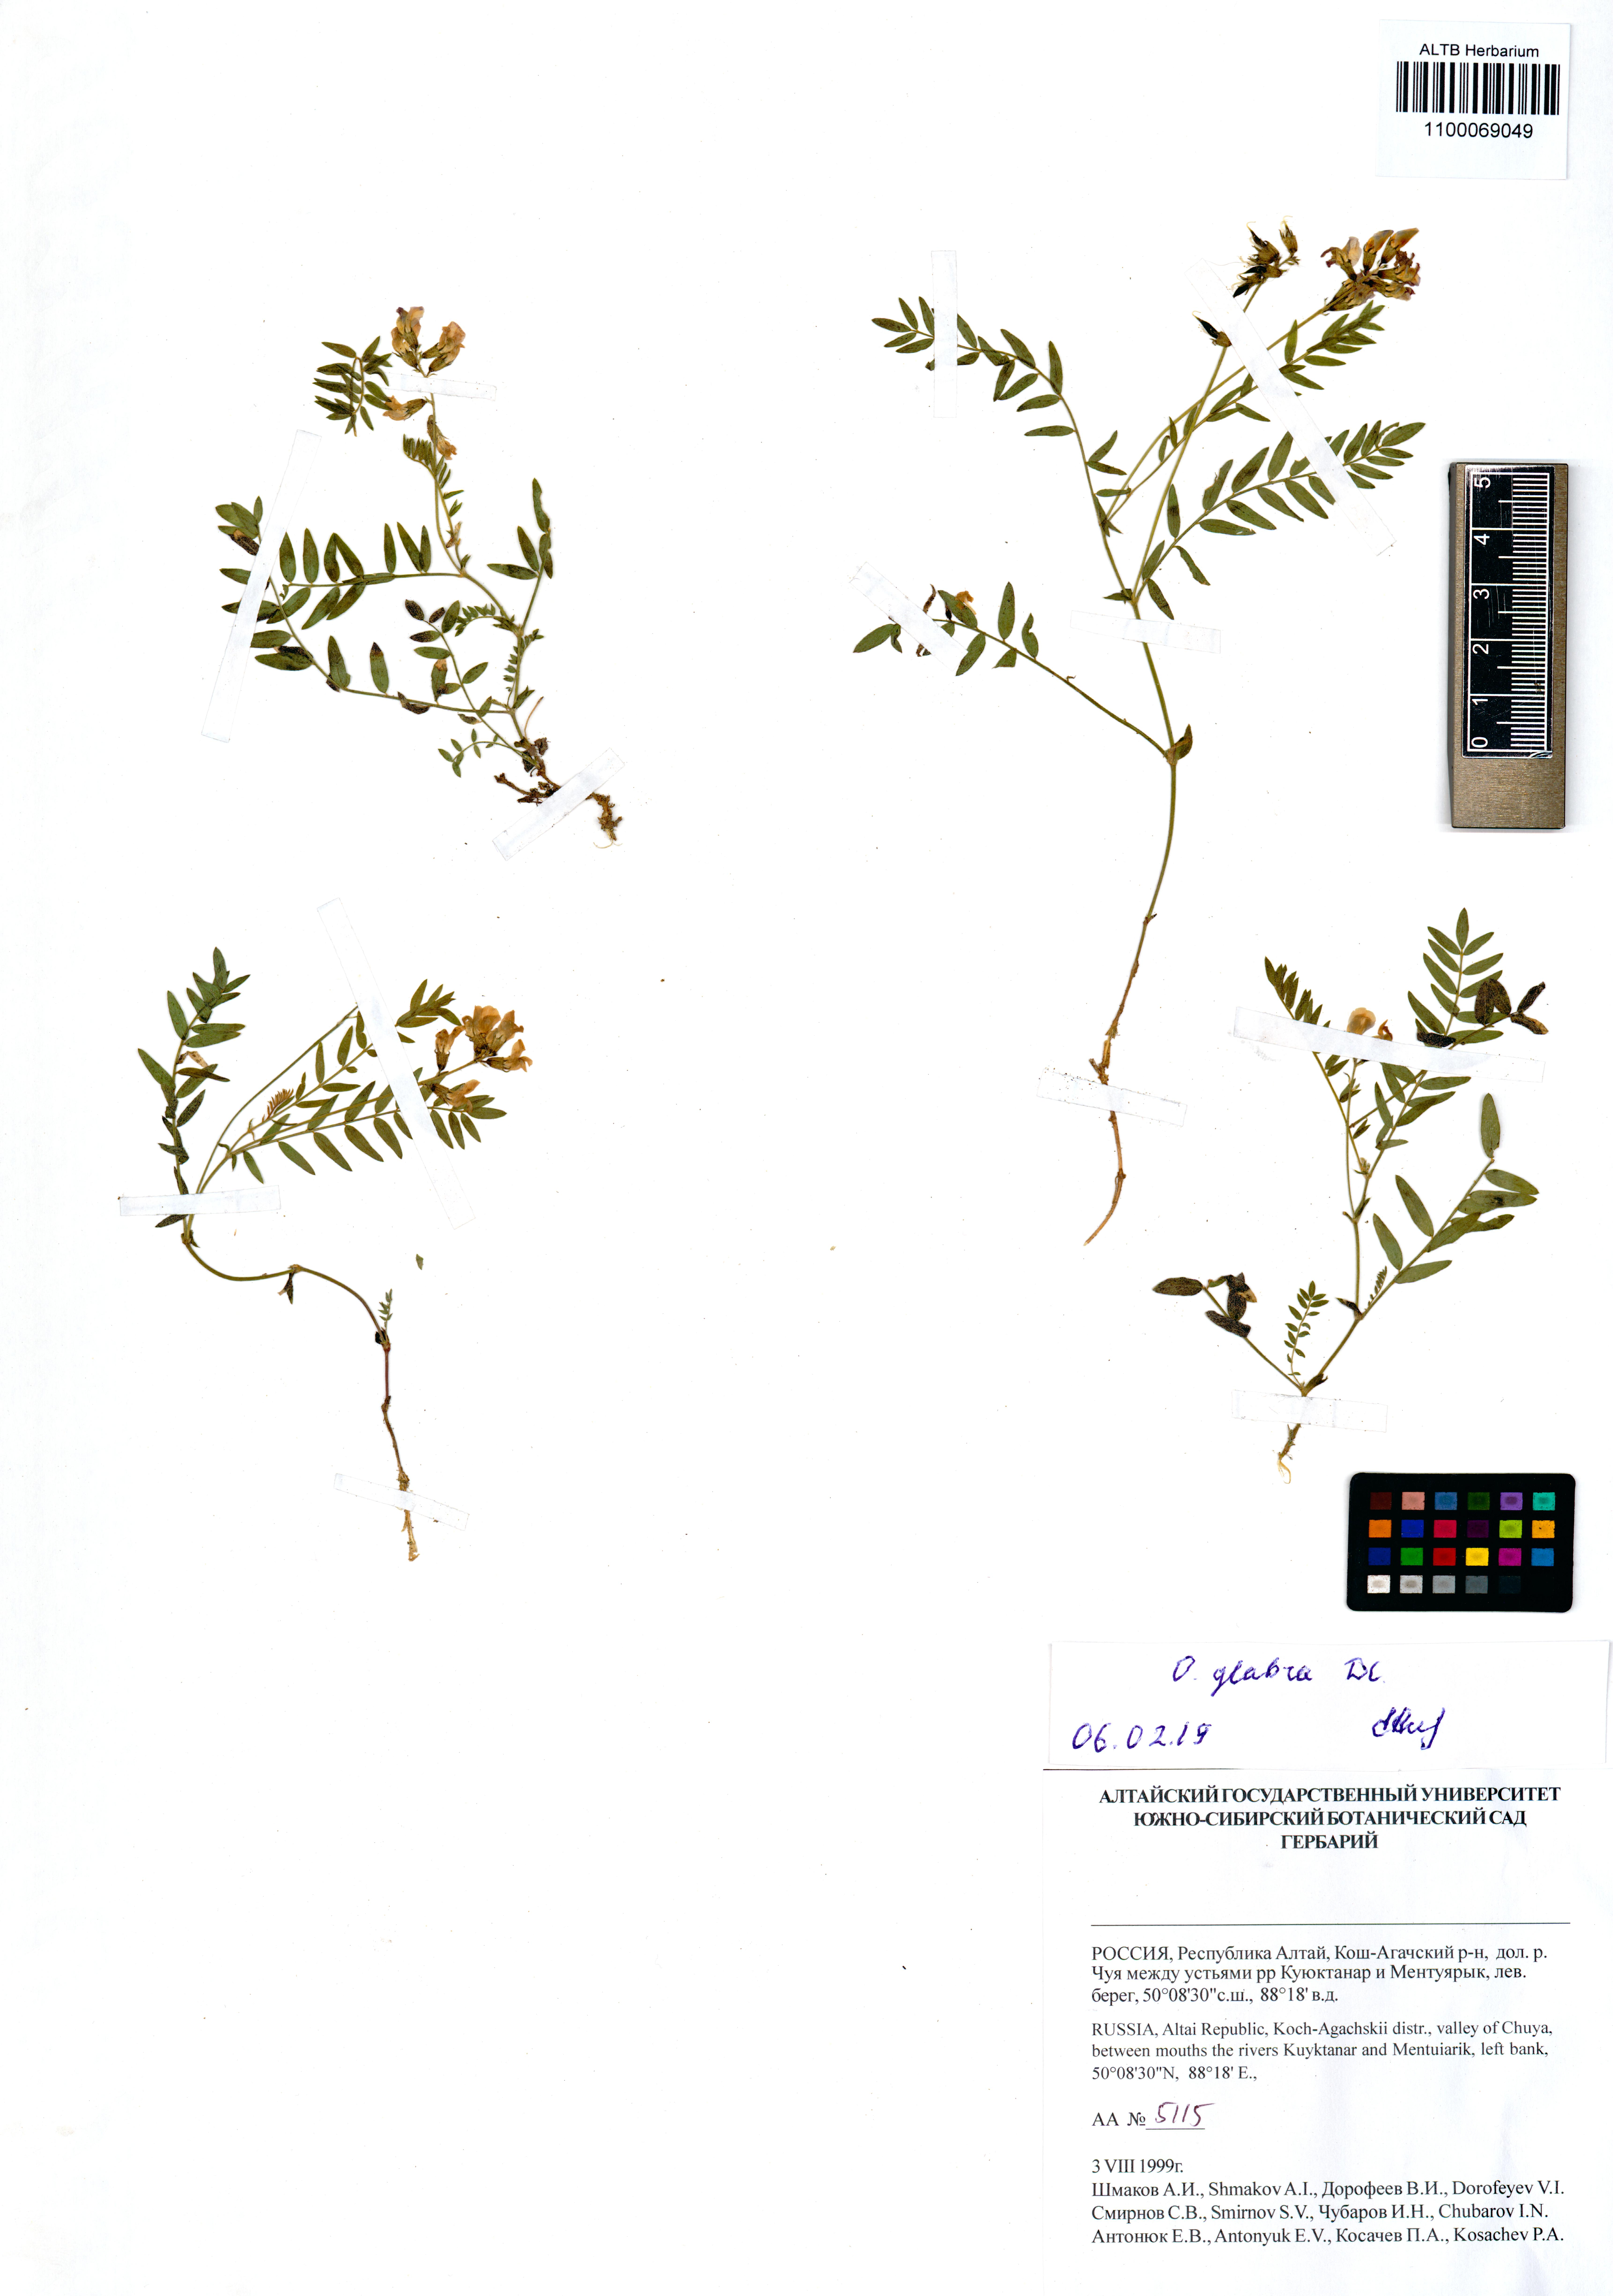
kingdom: Plantae
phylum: Tracheophyta
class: Magnoliopsida
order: Fabales
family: Fabaceae
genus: Oxytropis
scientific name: Oxytropis glabra
